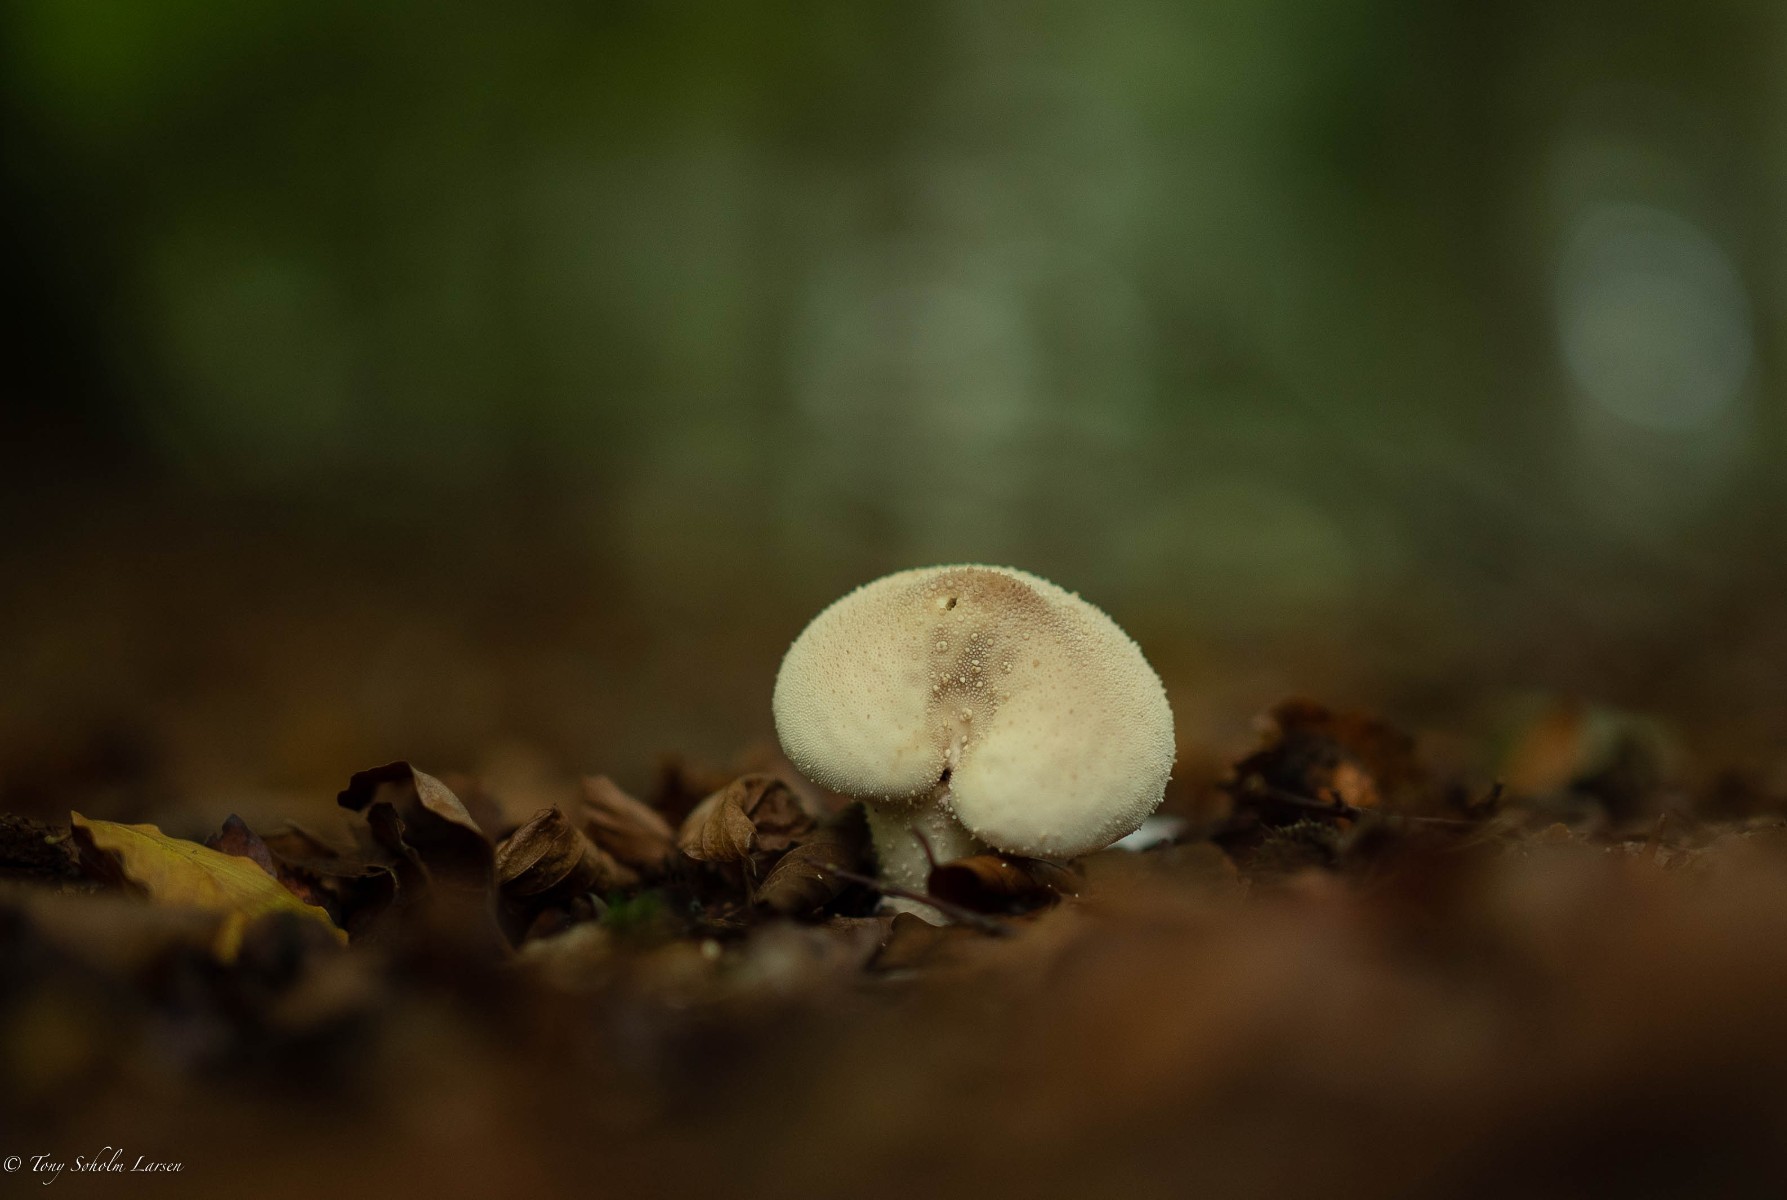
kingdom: Fungi
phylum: Basidiomycota
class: Agaricomycetes
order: Agaricales
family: Lycoperdaceae
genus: Lycoperdon
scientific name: Lycoperdon perlatum
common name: krystal-støvbold
